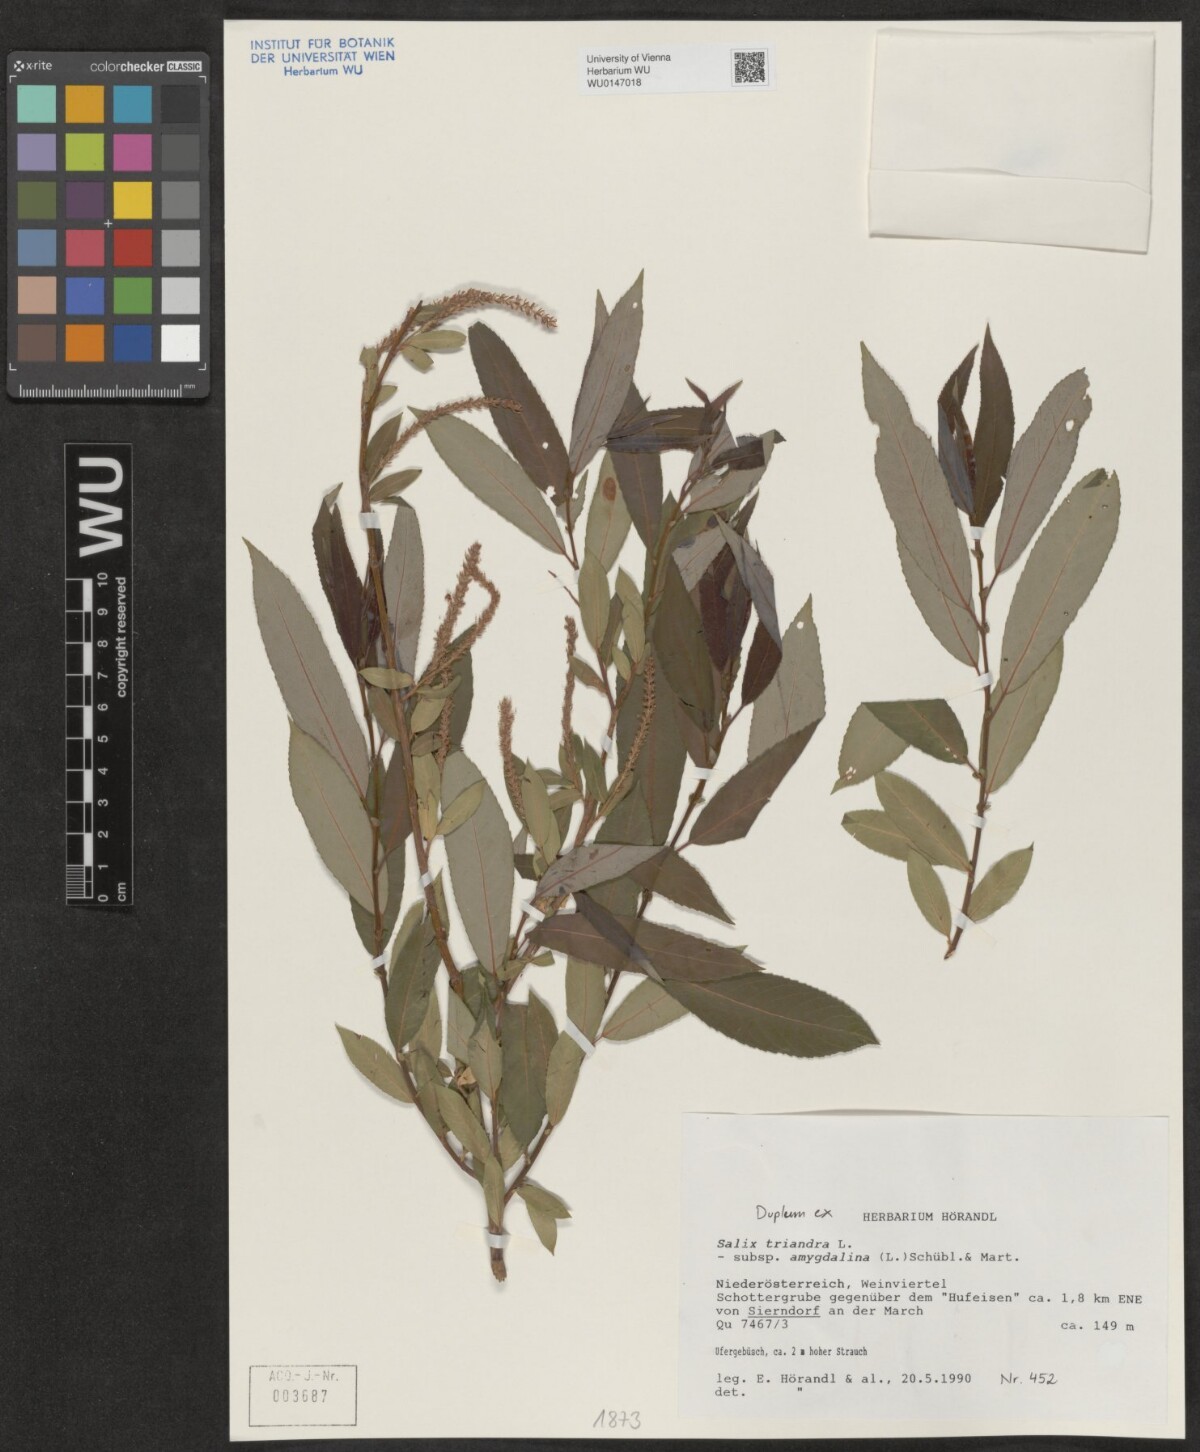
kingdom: Plantae
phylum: Tracheophyta
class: Magnoliopsida
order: Malpighiales
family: Salicaceae
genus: Salix
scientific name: Salix triandra
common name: Almond willow
